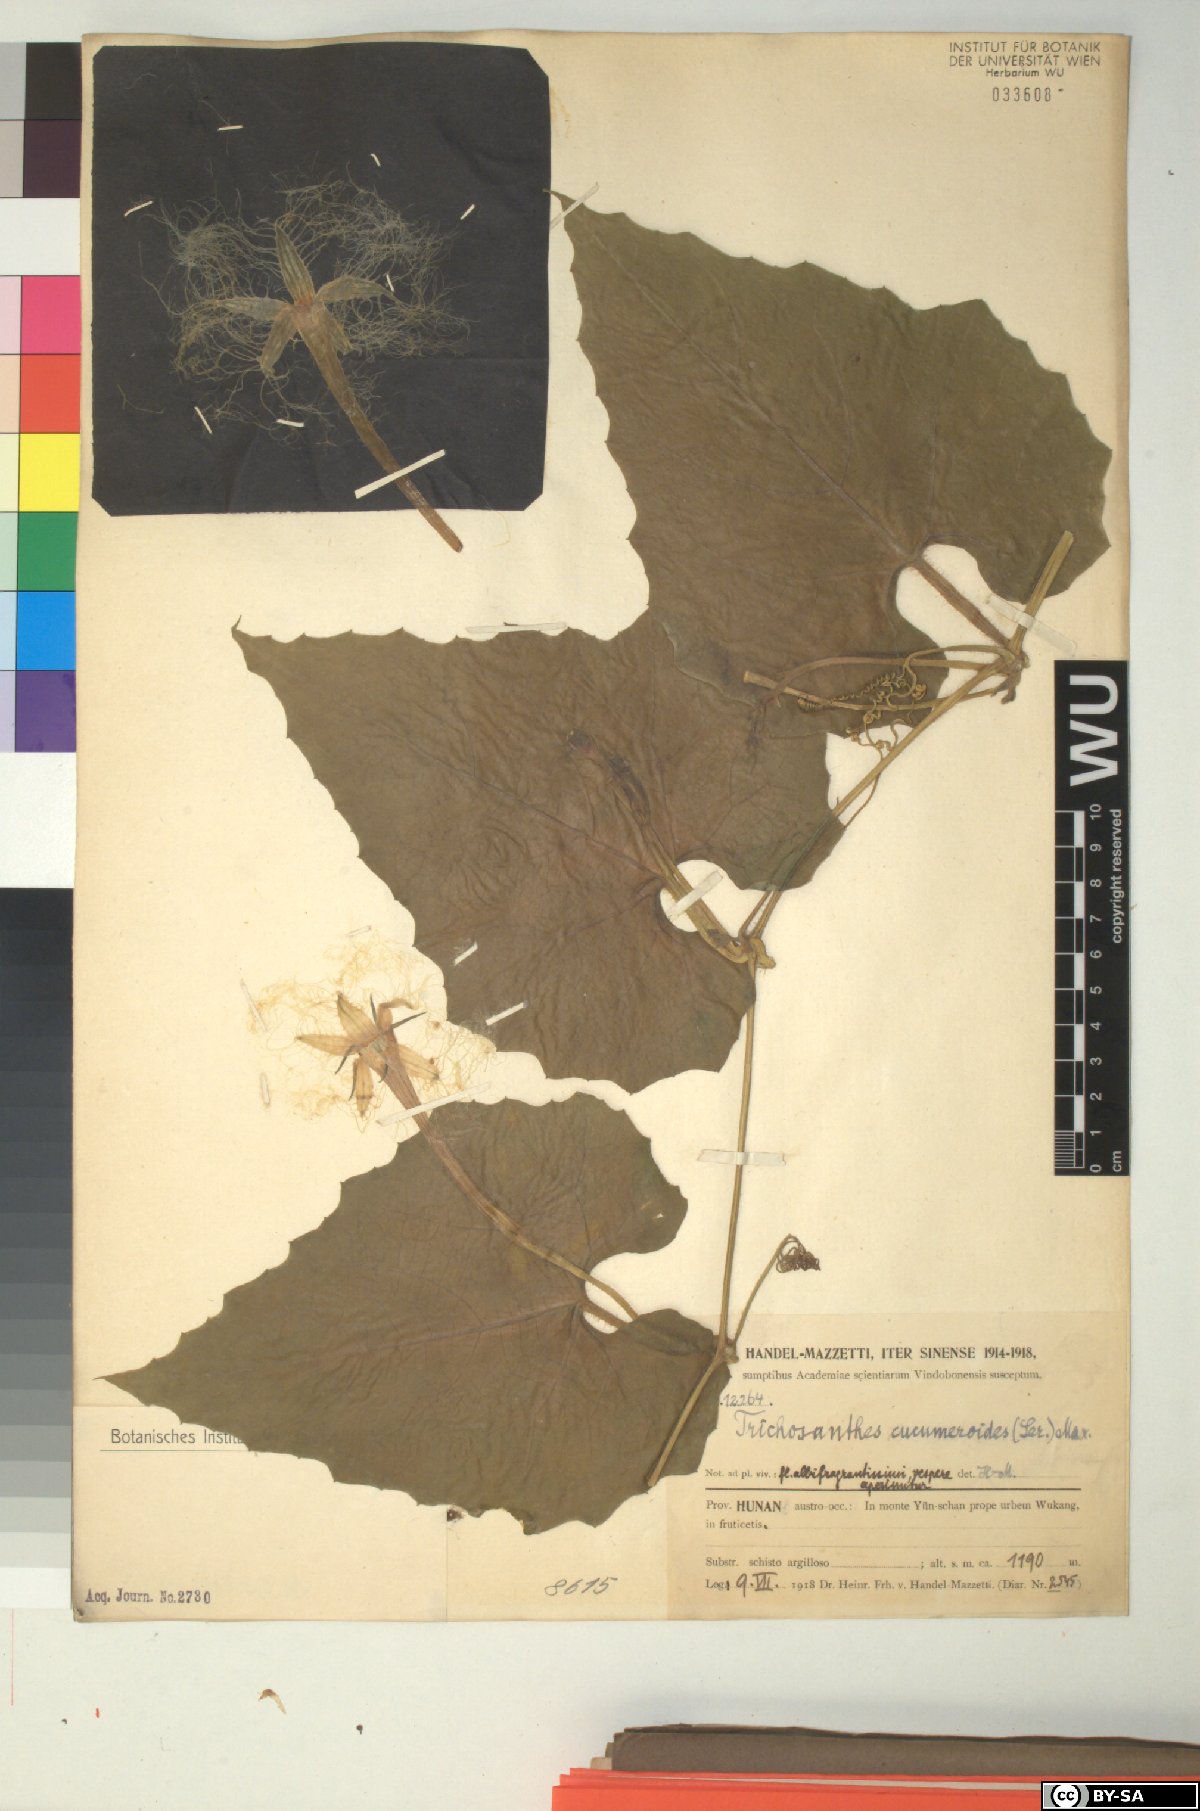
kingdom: Plantae
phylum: Tracheophyta
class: Magnoliopsida
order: Cucurbitales
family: Cucurbitaceae
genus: Trichosanthes
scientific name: Trichosanthes cucumeroides
